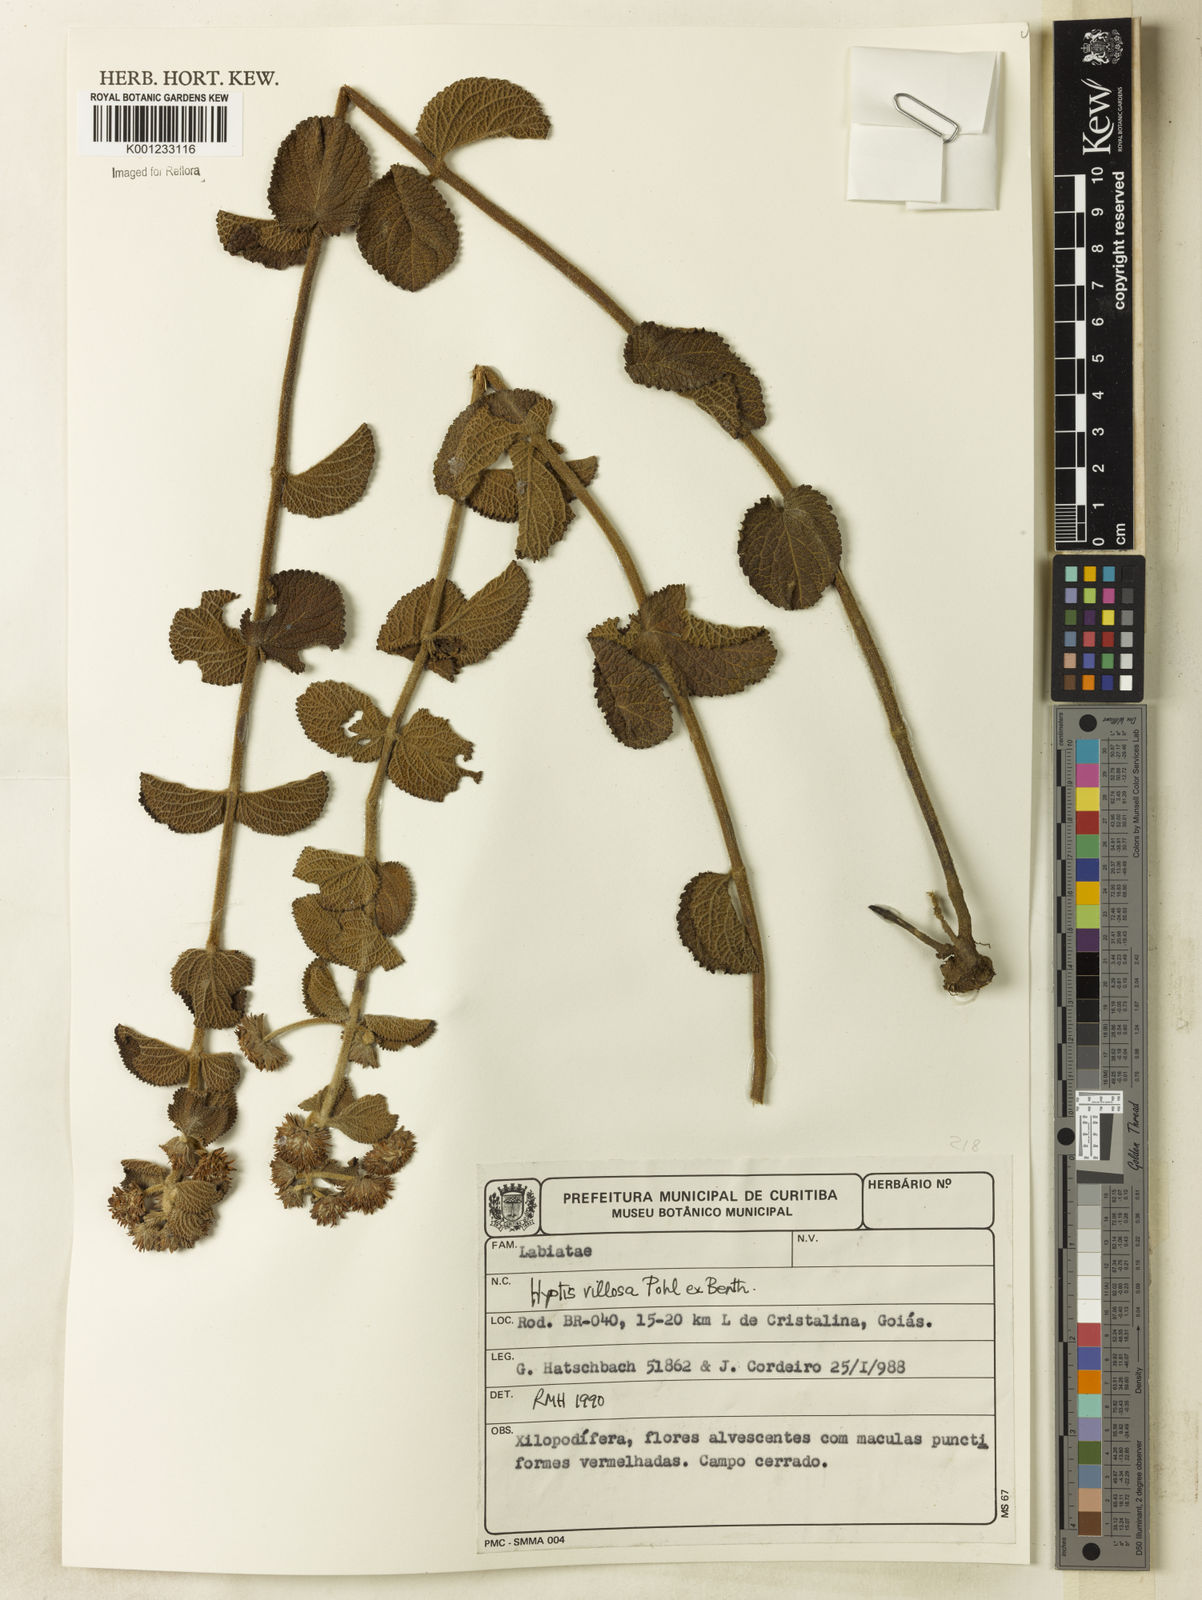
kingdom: Plantae
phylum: Tracheophyta
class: Magnoliopsida
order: Lamiales
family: Lamiaceae
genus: Hyptis
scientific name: Hyptis villosa
